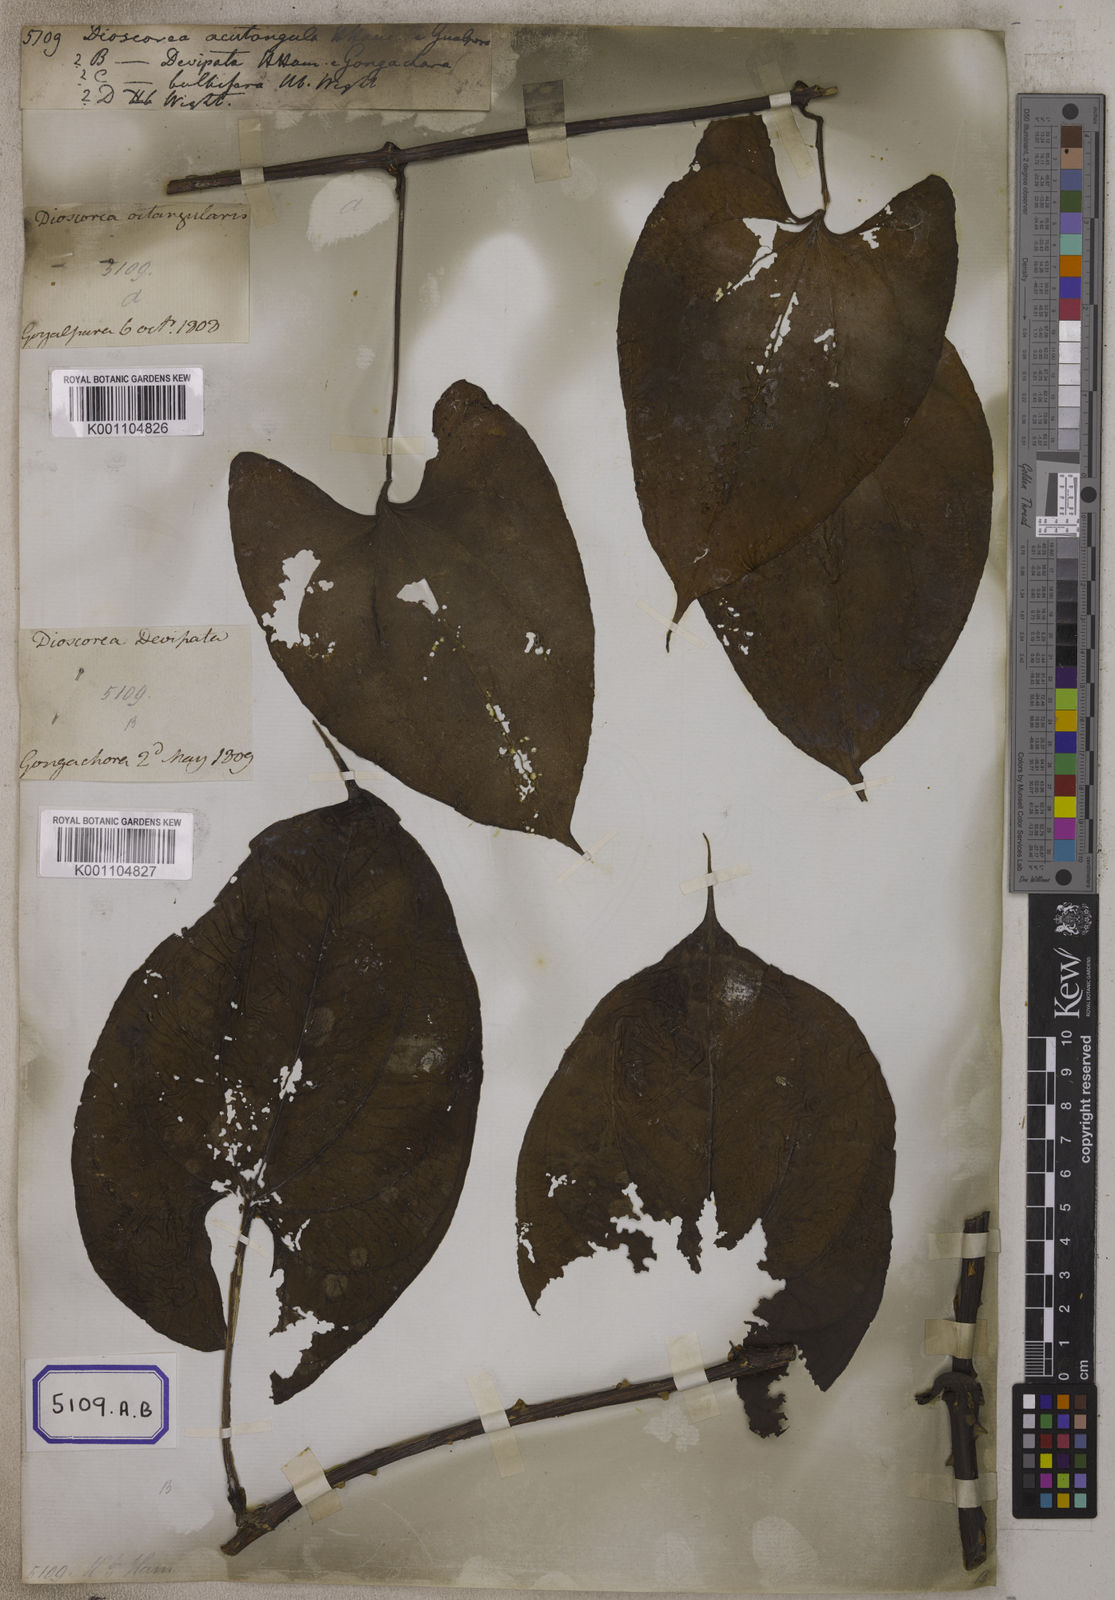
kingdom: Plantae
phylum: Tracheophyta
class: Liliopsida
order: Dioscoreales
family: Dioscoreaceae
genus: Dioscorea
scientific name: Dioscorea
